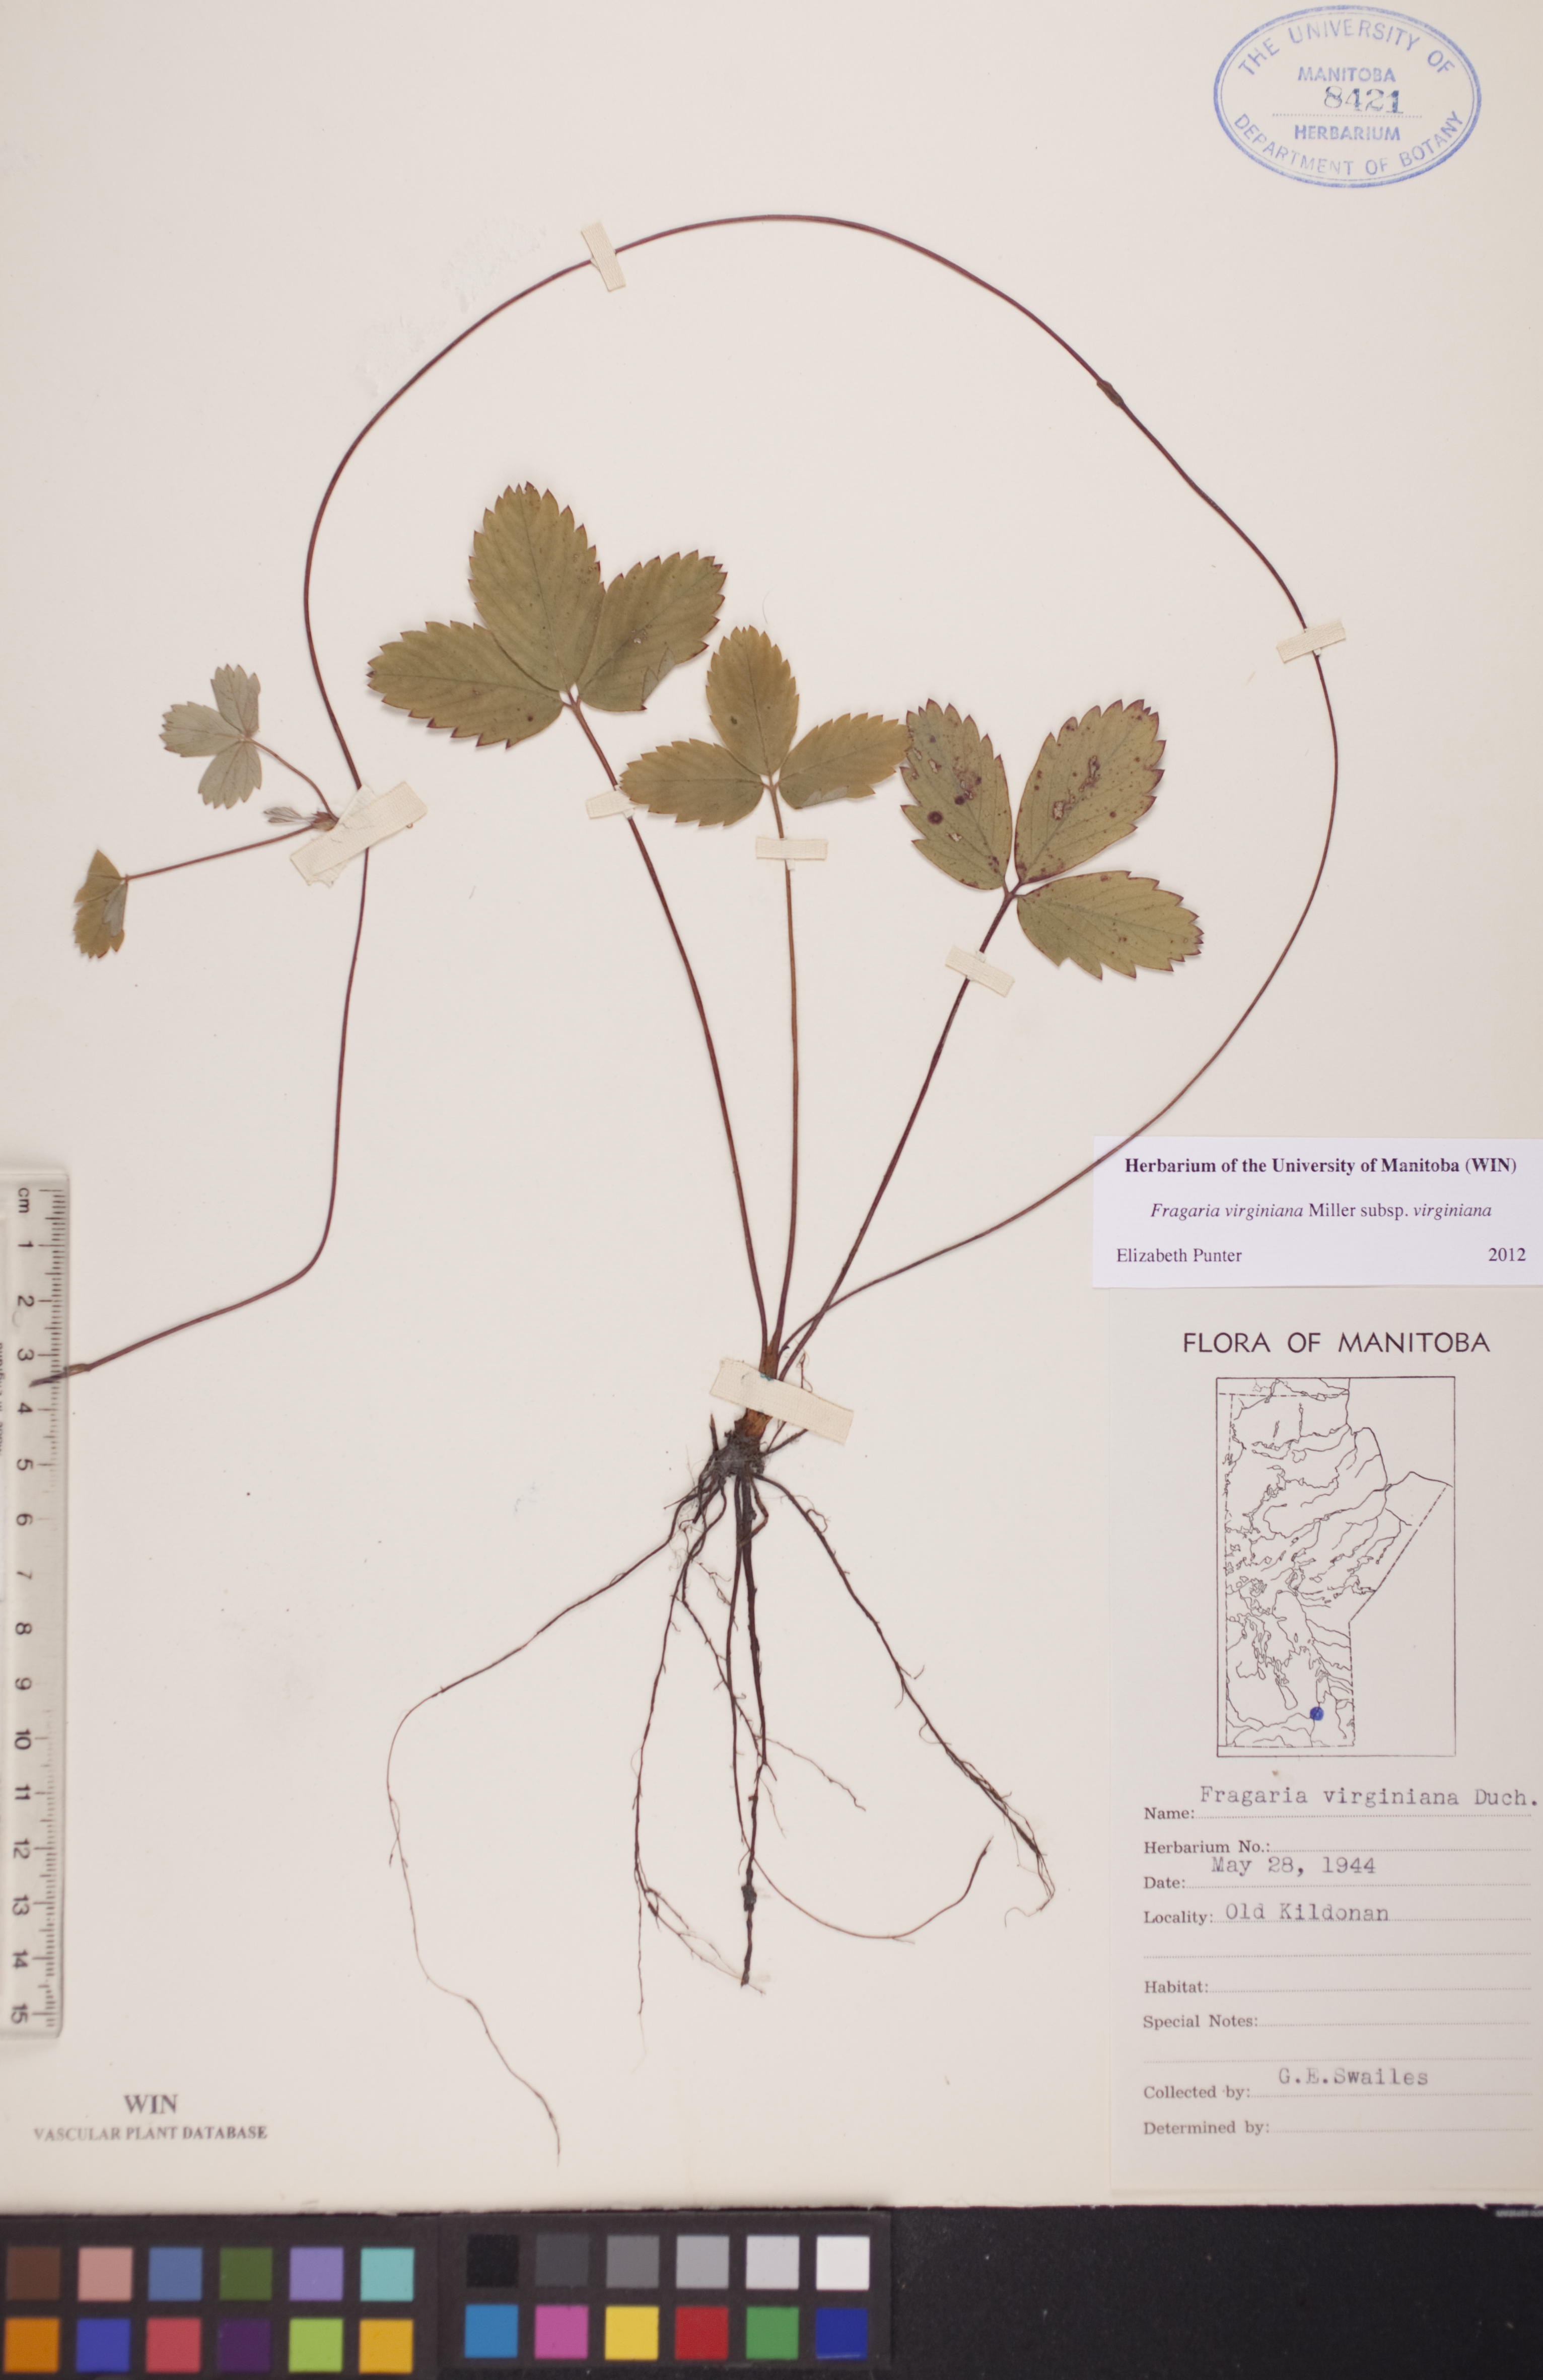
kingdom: Plantae
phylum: Tracheophyta
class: Magnoliopsida
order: Rosales
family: Rosaceae
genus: Fragaria
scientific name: Fragaria virginiana
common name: Thickleaved wild strawberry
